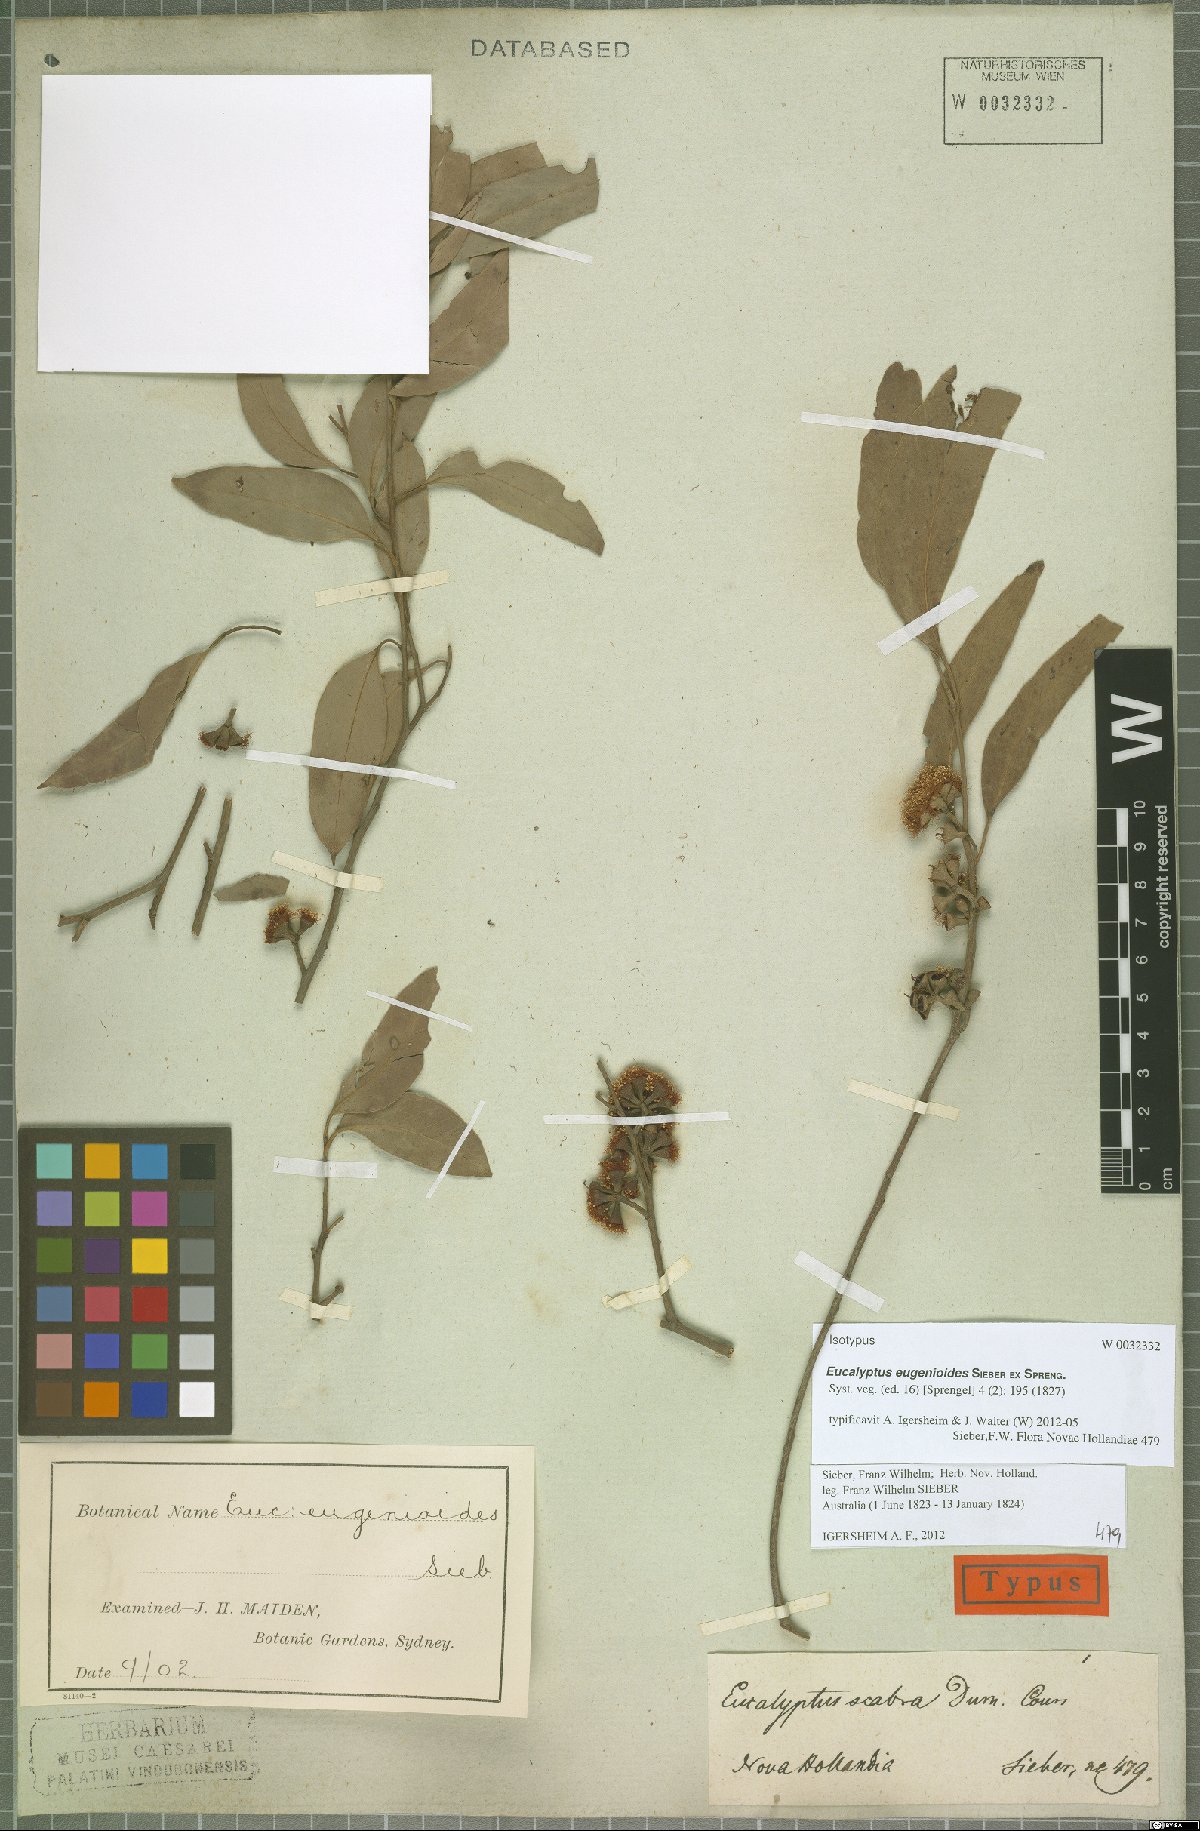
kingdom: Plantae
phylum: Tracheophyta
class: Magnoliopsida
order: Myrtales
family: Myrtaceae
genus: Eucalyptus
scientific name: Eucalyptus eugenioides
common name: Narrow-leaved-stringybark
